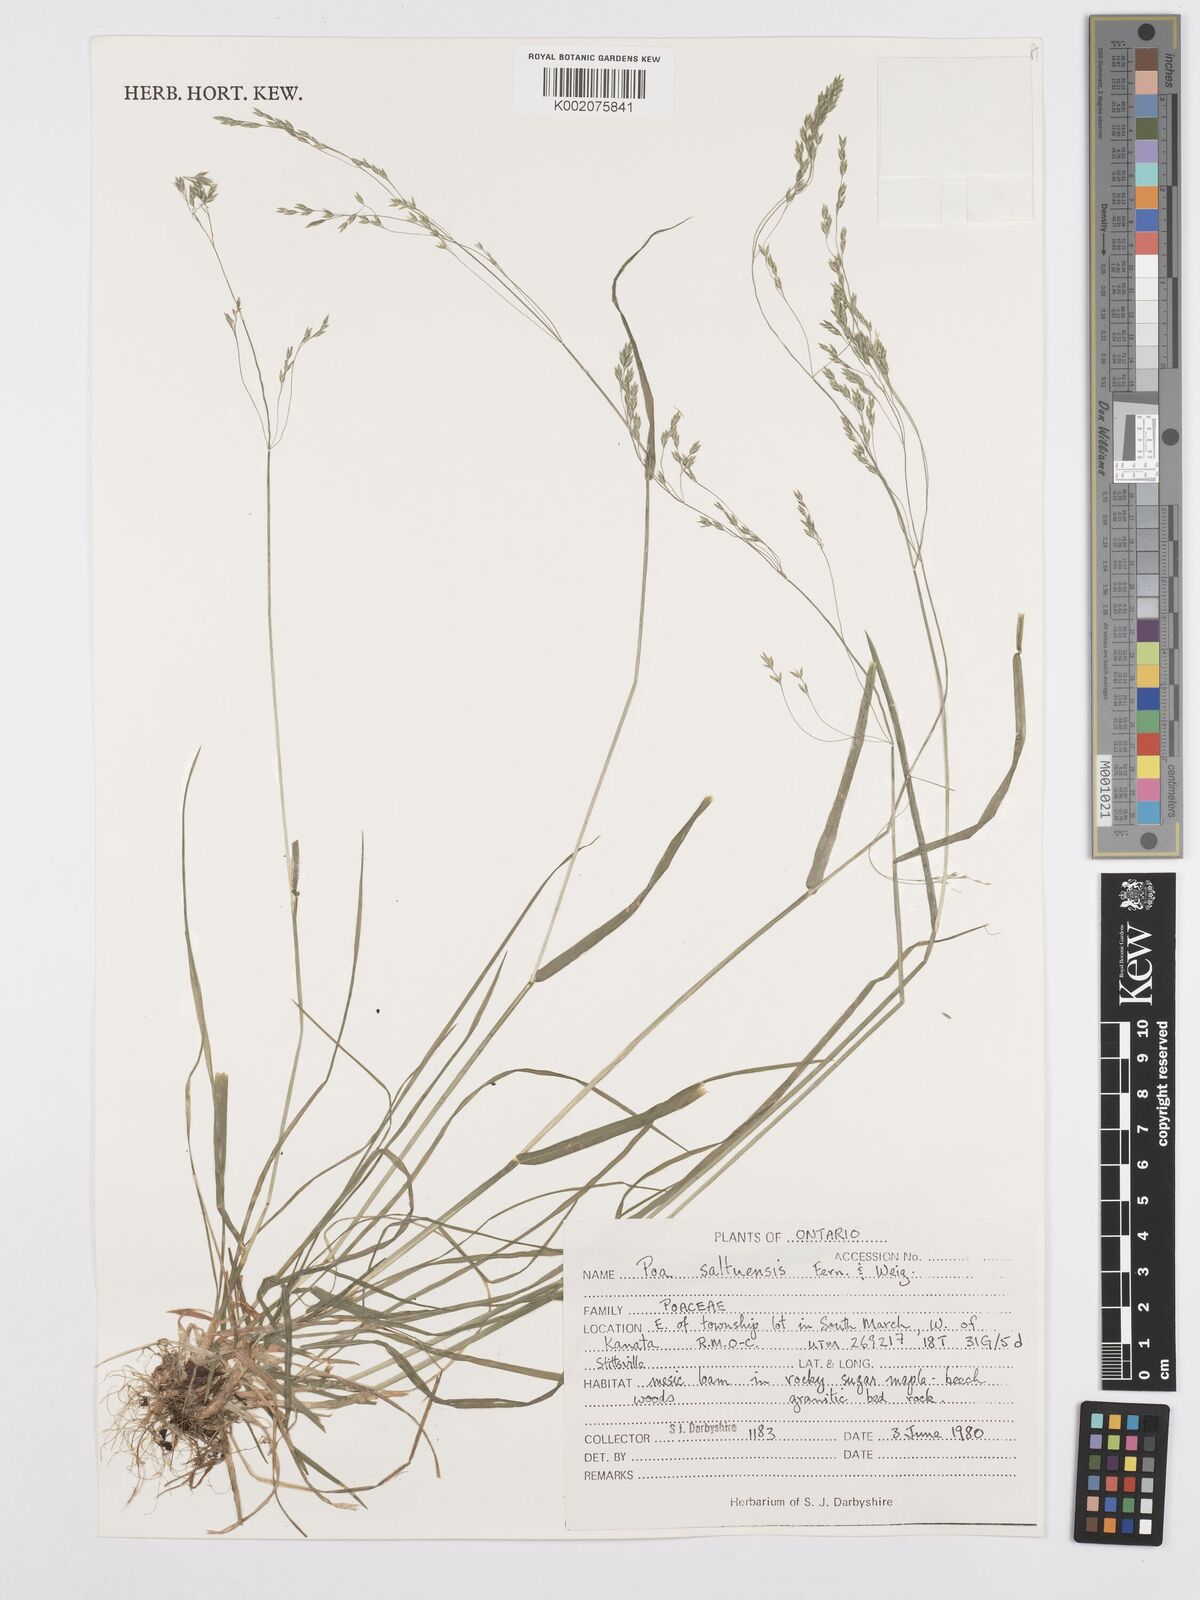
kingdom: Plantae
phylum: Tracheophyta
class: Liliopsida
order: Poales
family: Poaceae
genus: Poa
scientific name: Poa saltuensis
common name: Bushy pasture speargrass
